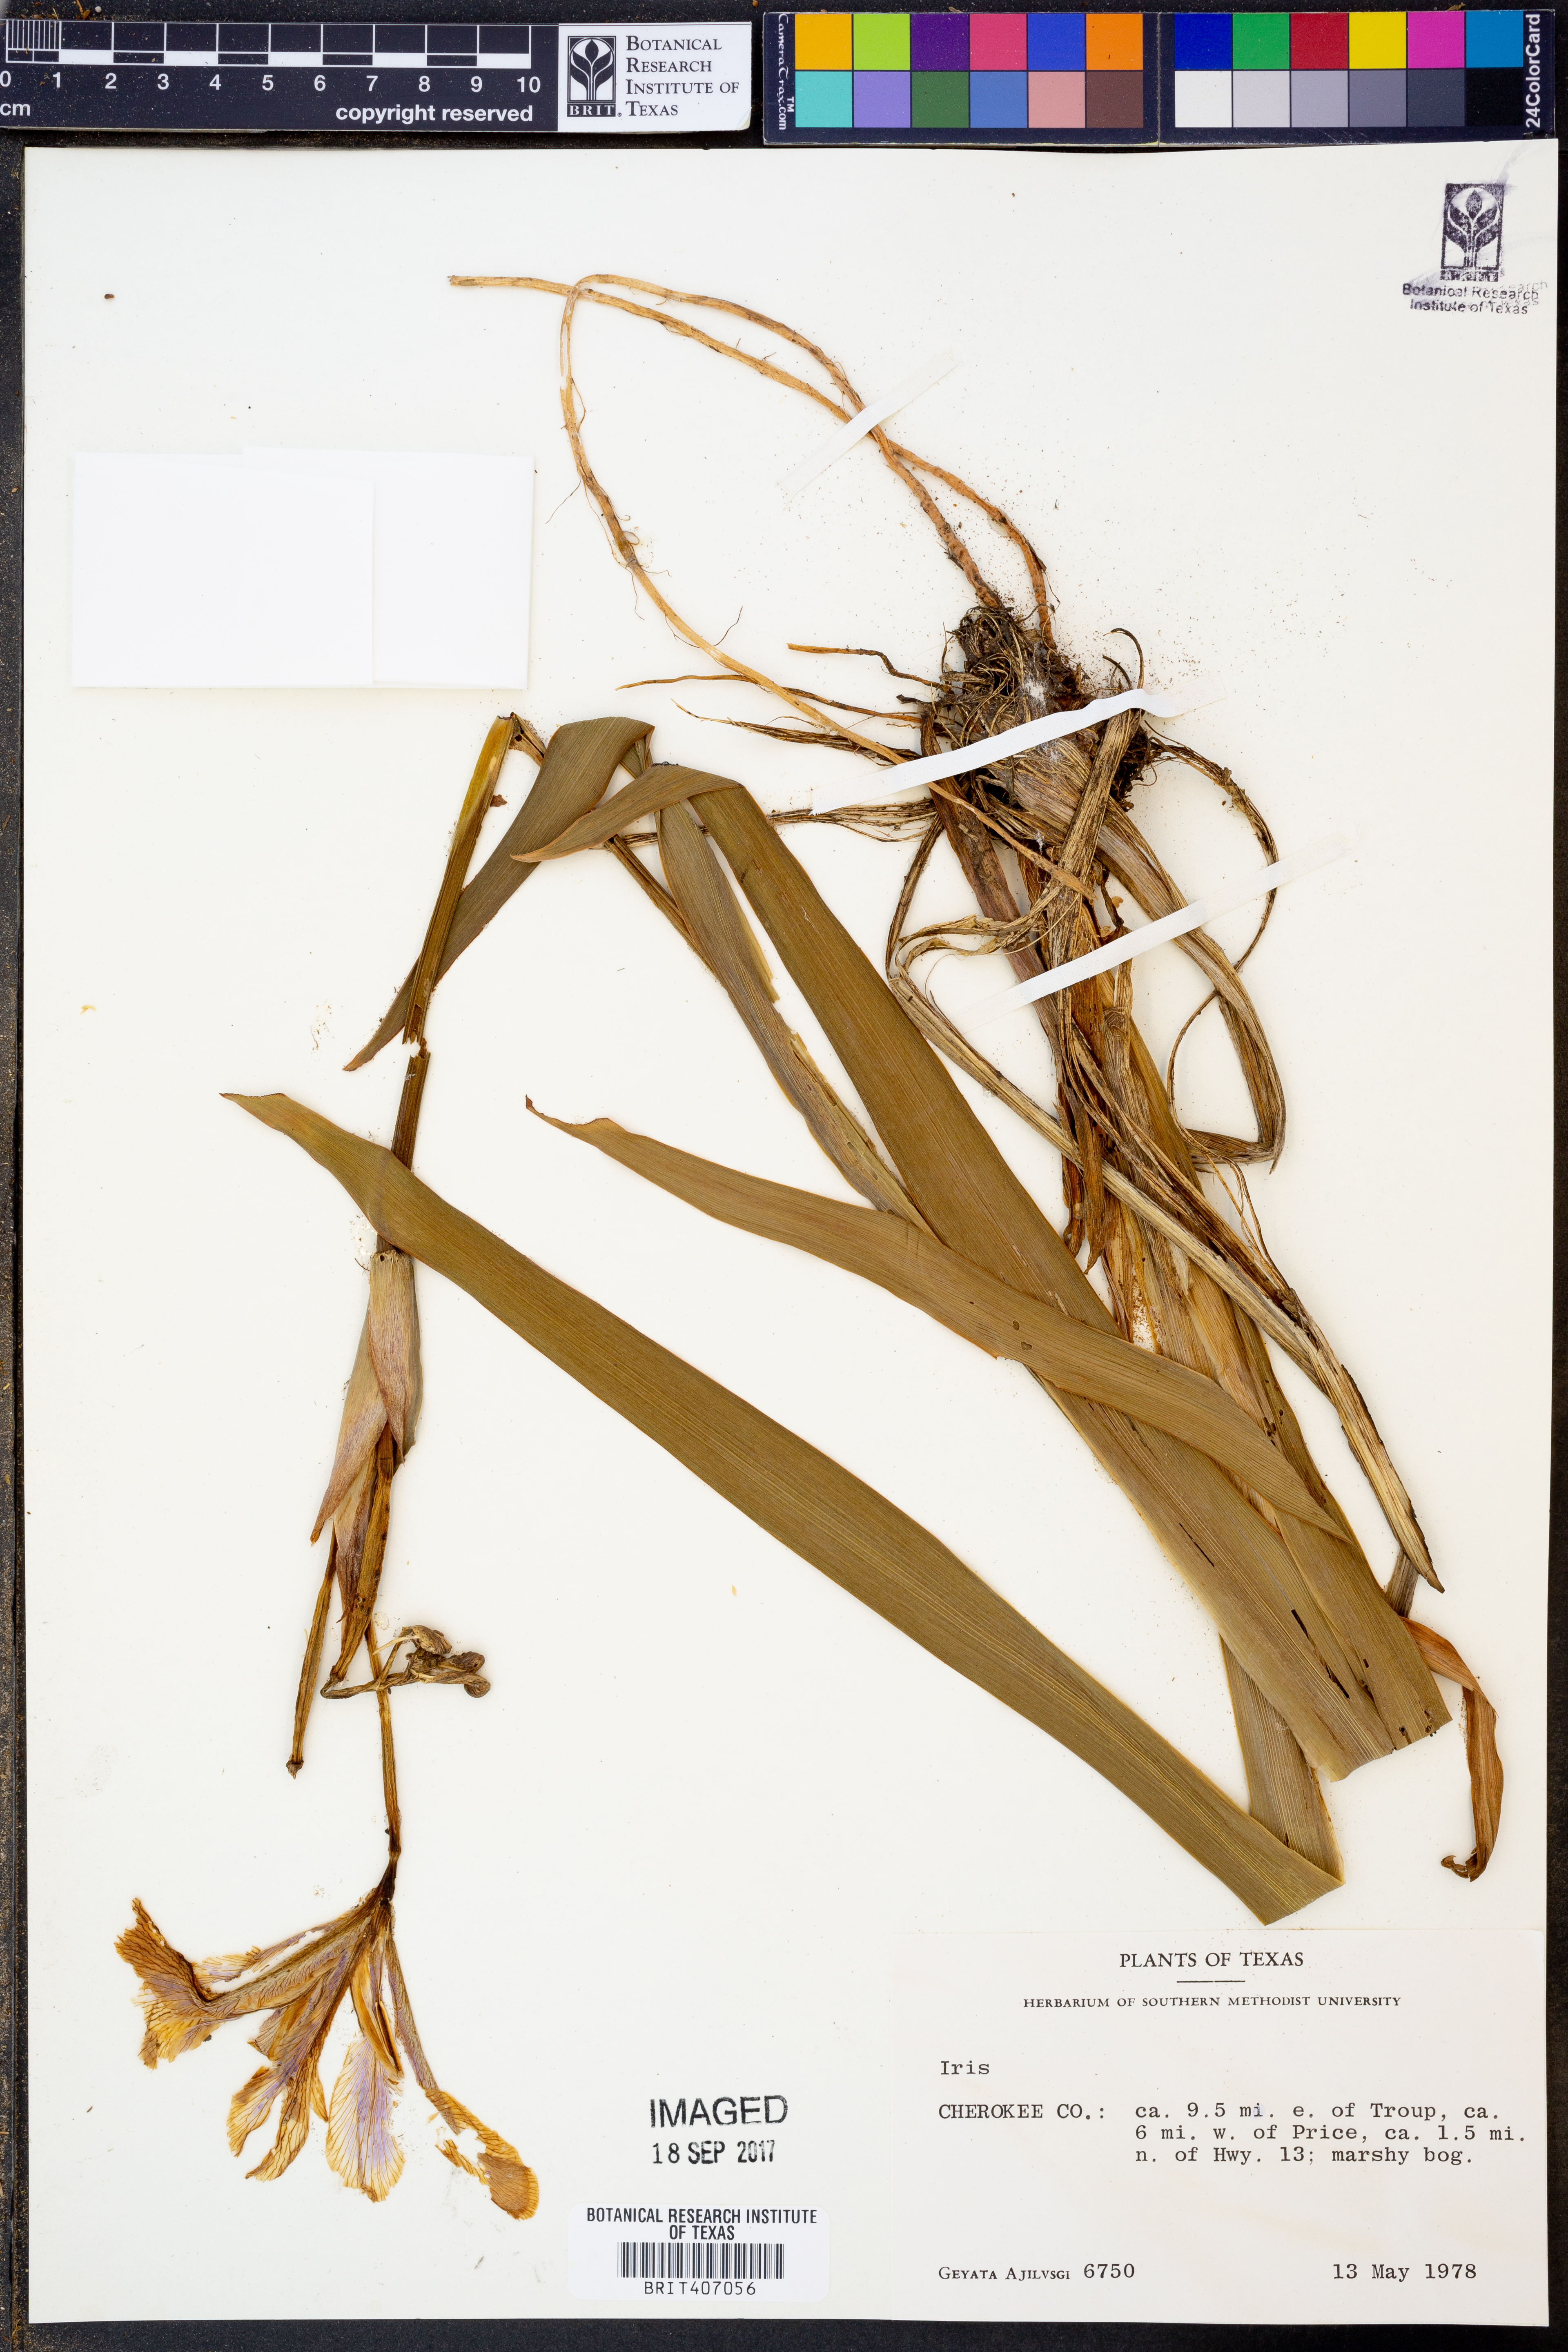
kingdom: Plantae
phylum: Tracheophyta
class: Liliopsida
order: Asparagales
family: Iridaceae
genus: Iris
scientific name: Iris
